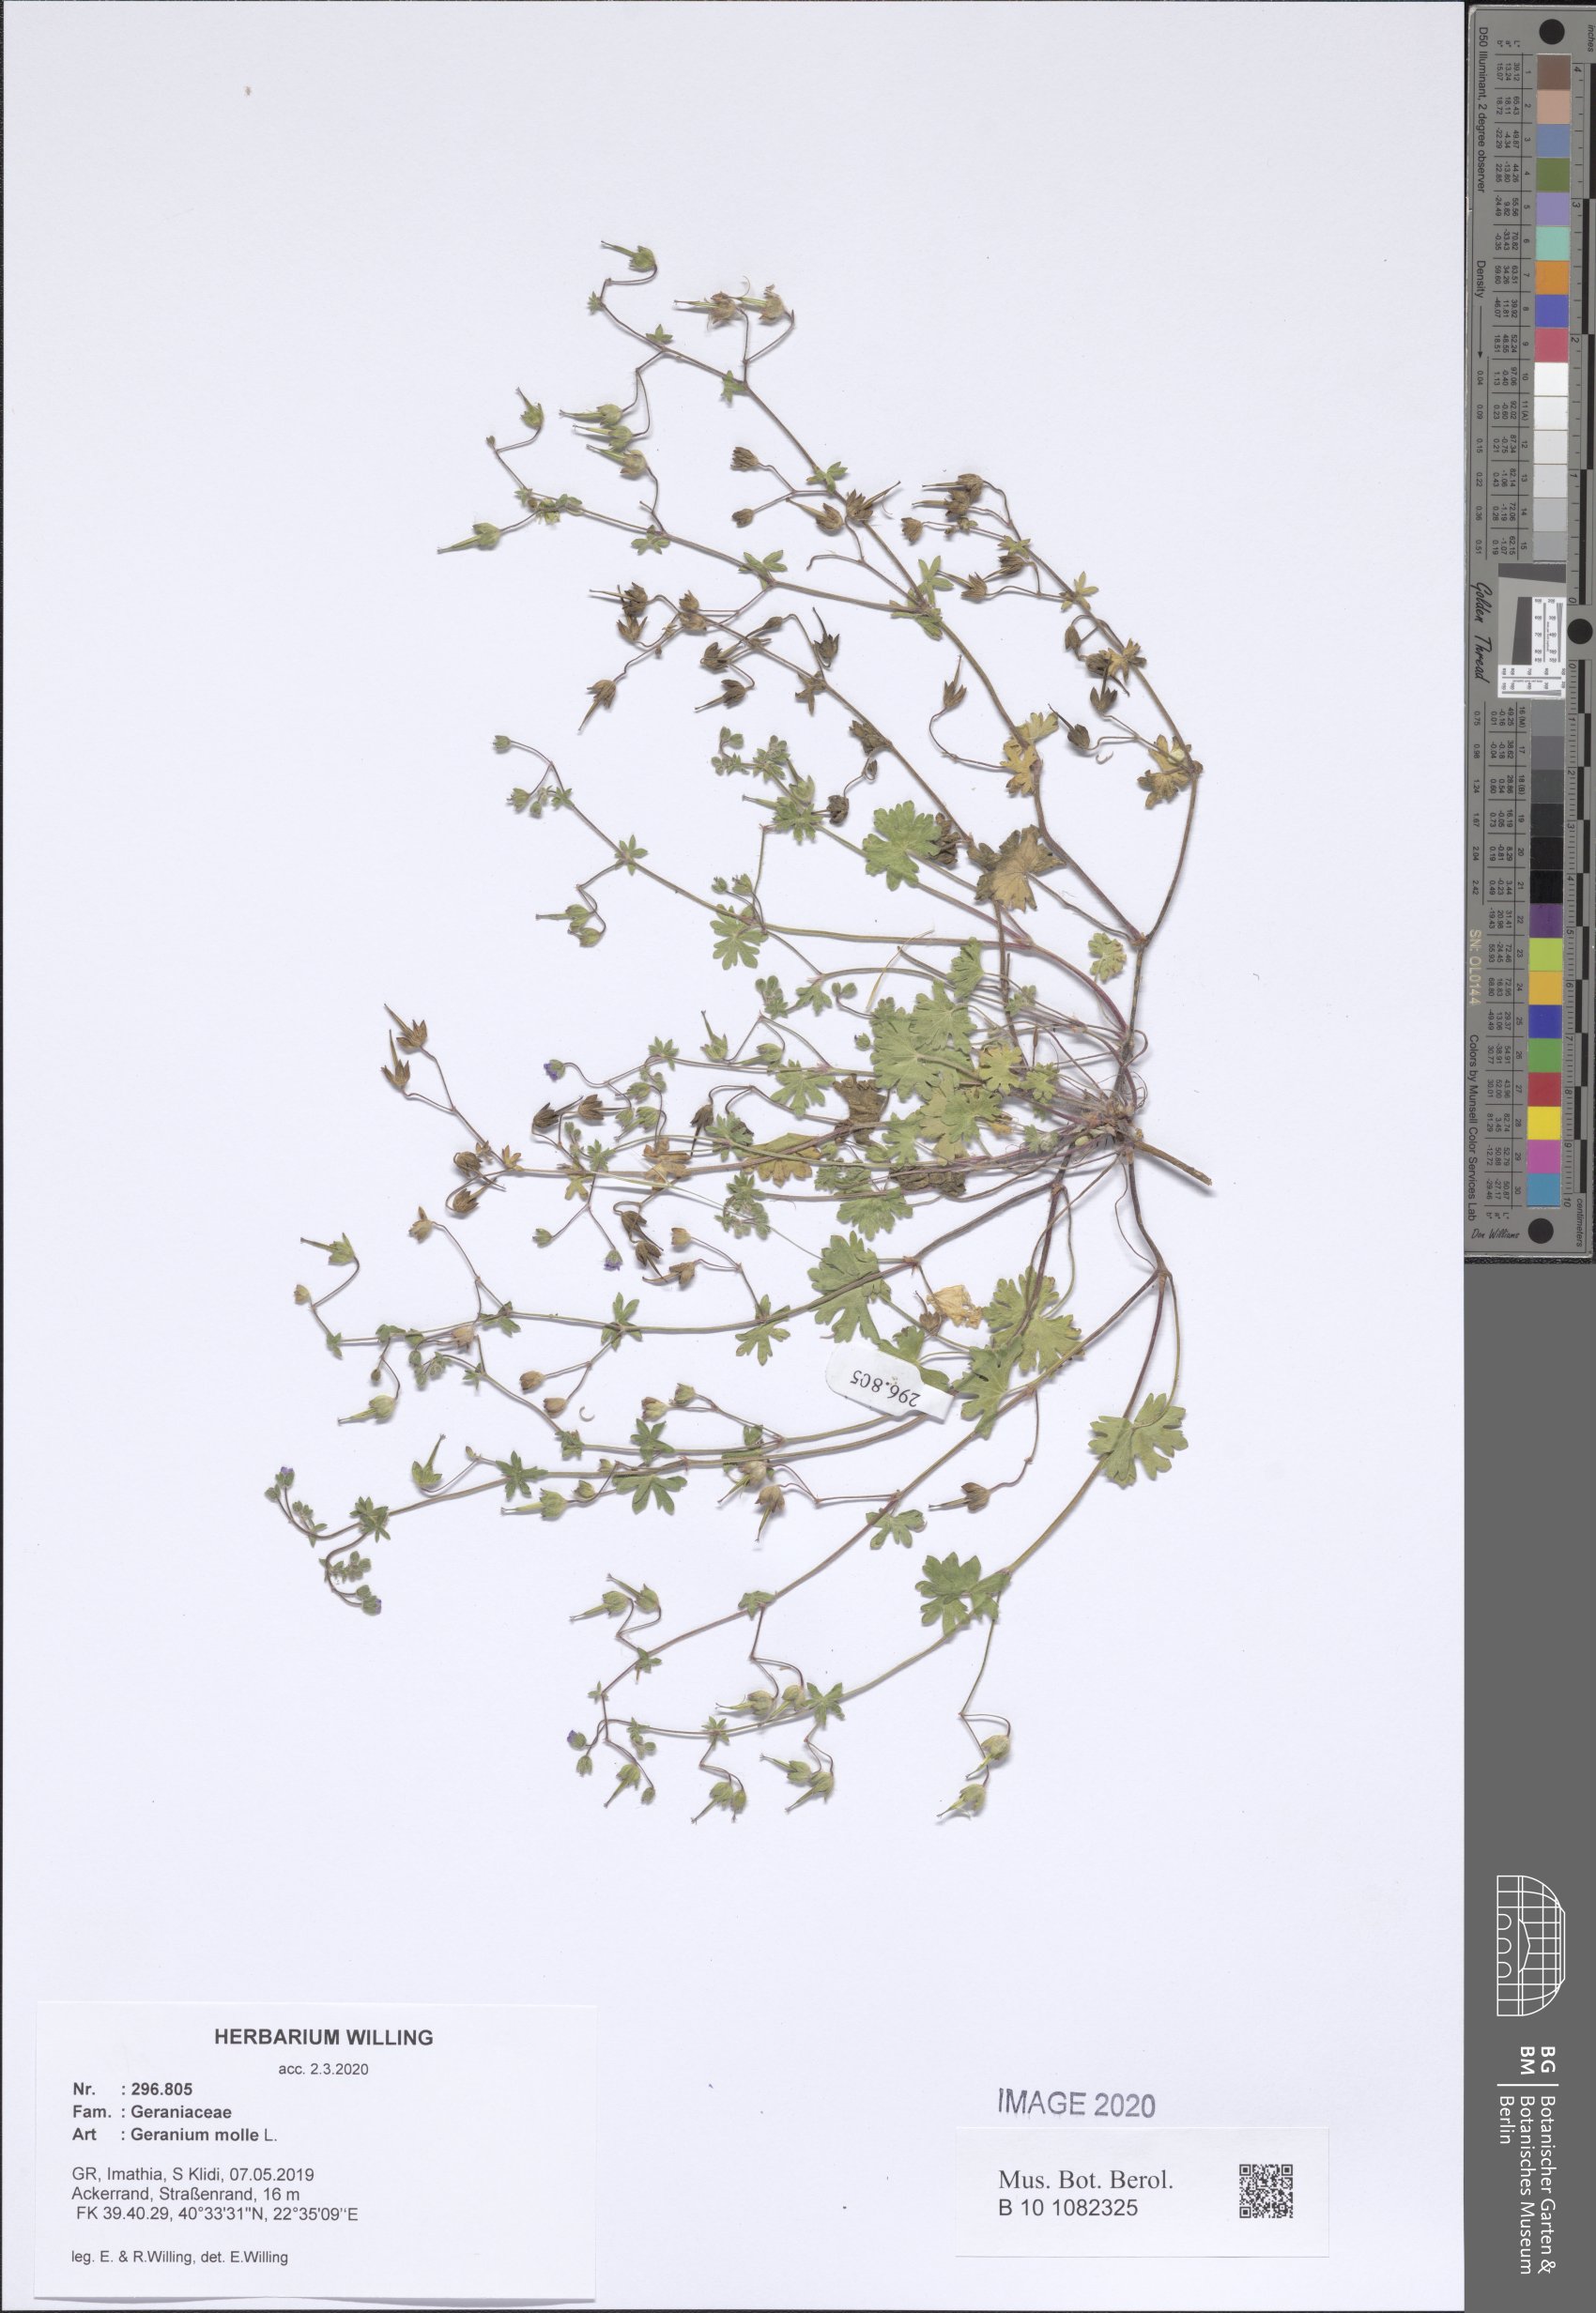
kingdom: Plantae
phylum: Tracheophyta
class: Magnoliopsida
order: Geraniales
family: Geraniaceae
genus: Geranium
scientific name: Geranium molle
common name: Dove's-foot crane's-bill
